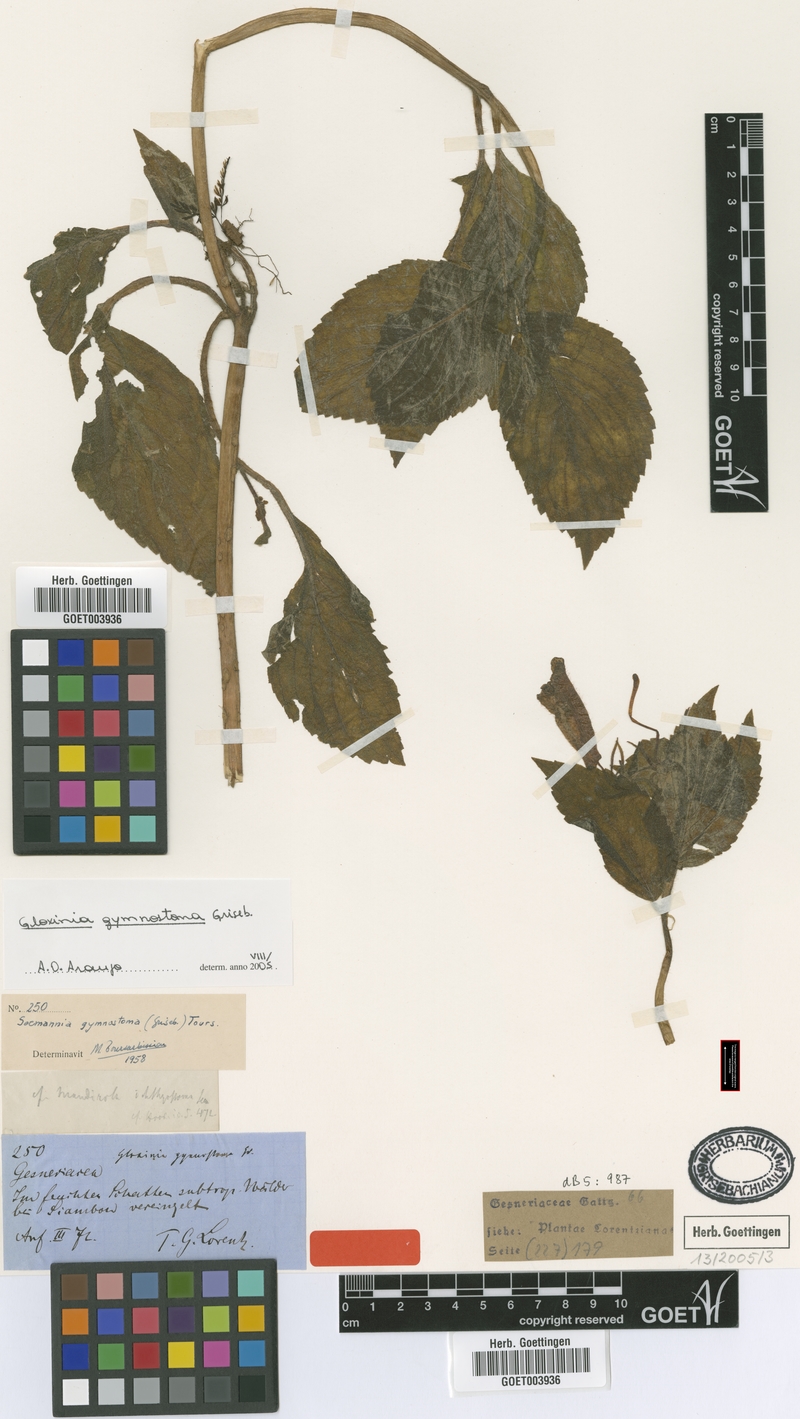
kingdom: Plantae
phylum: Tracheophyta
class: Magnoliopsida
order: Lamiales
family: Gesneriaceae
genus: Seemannia
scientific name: Seemannia gymnostoma
